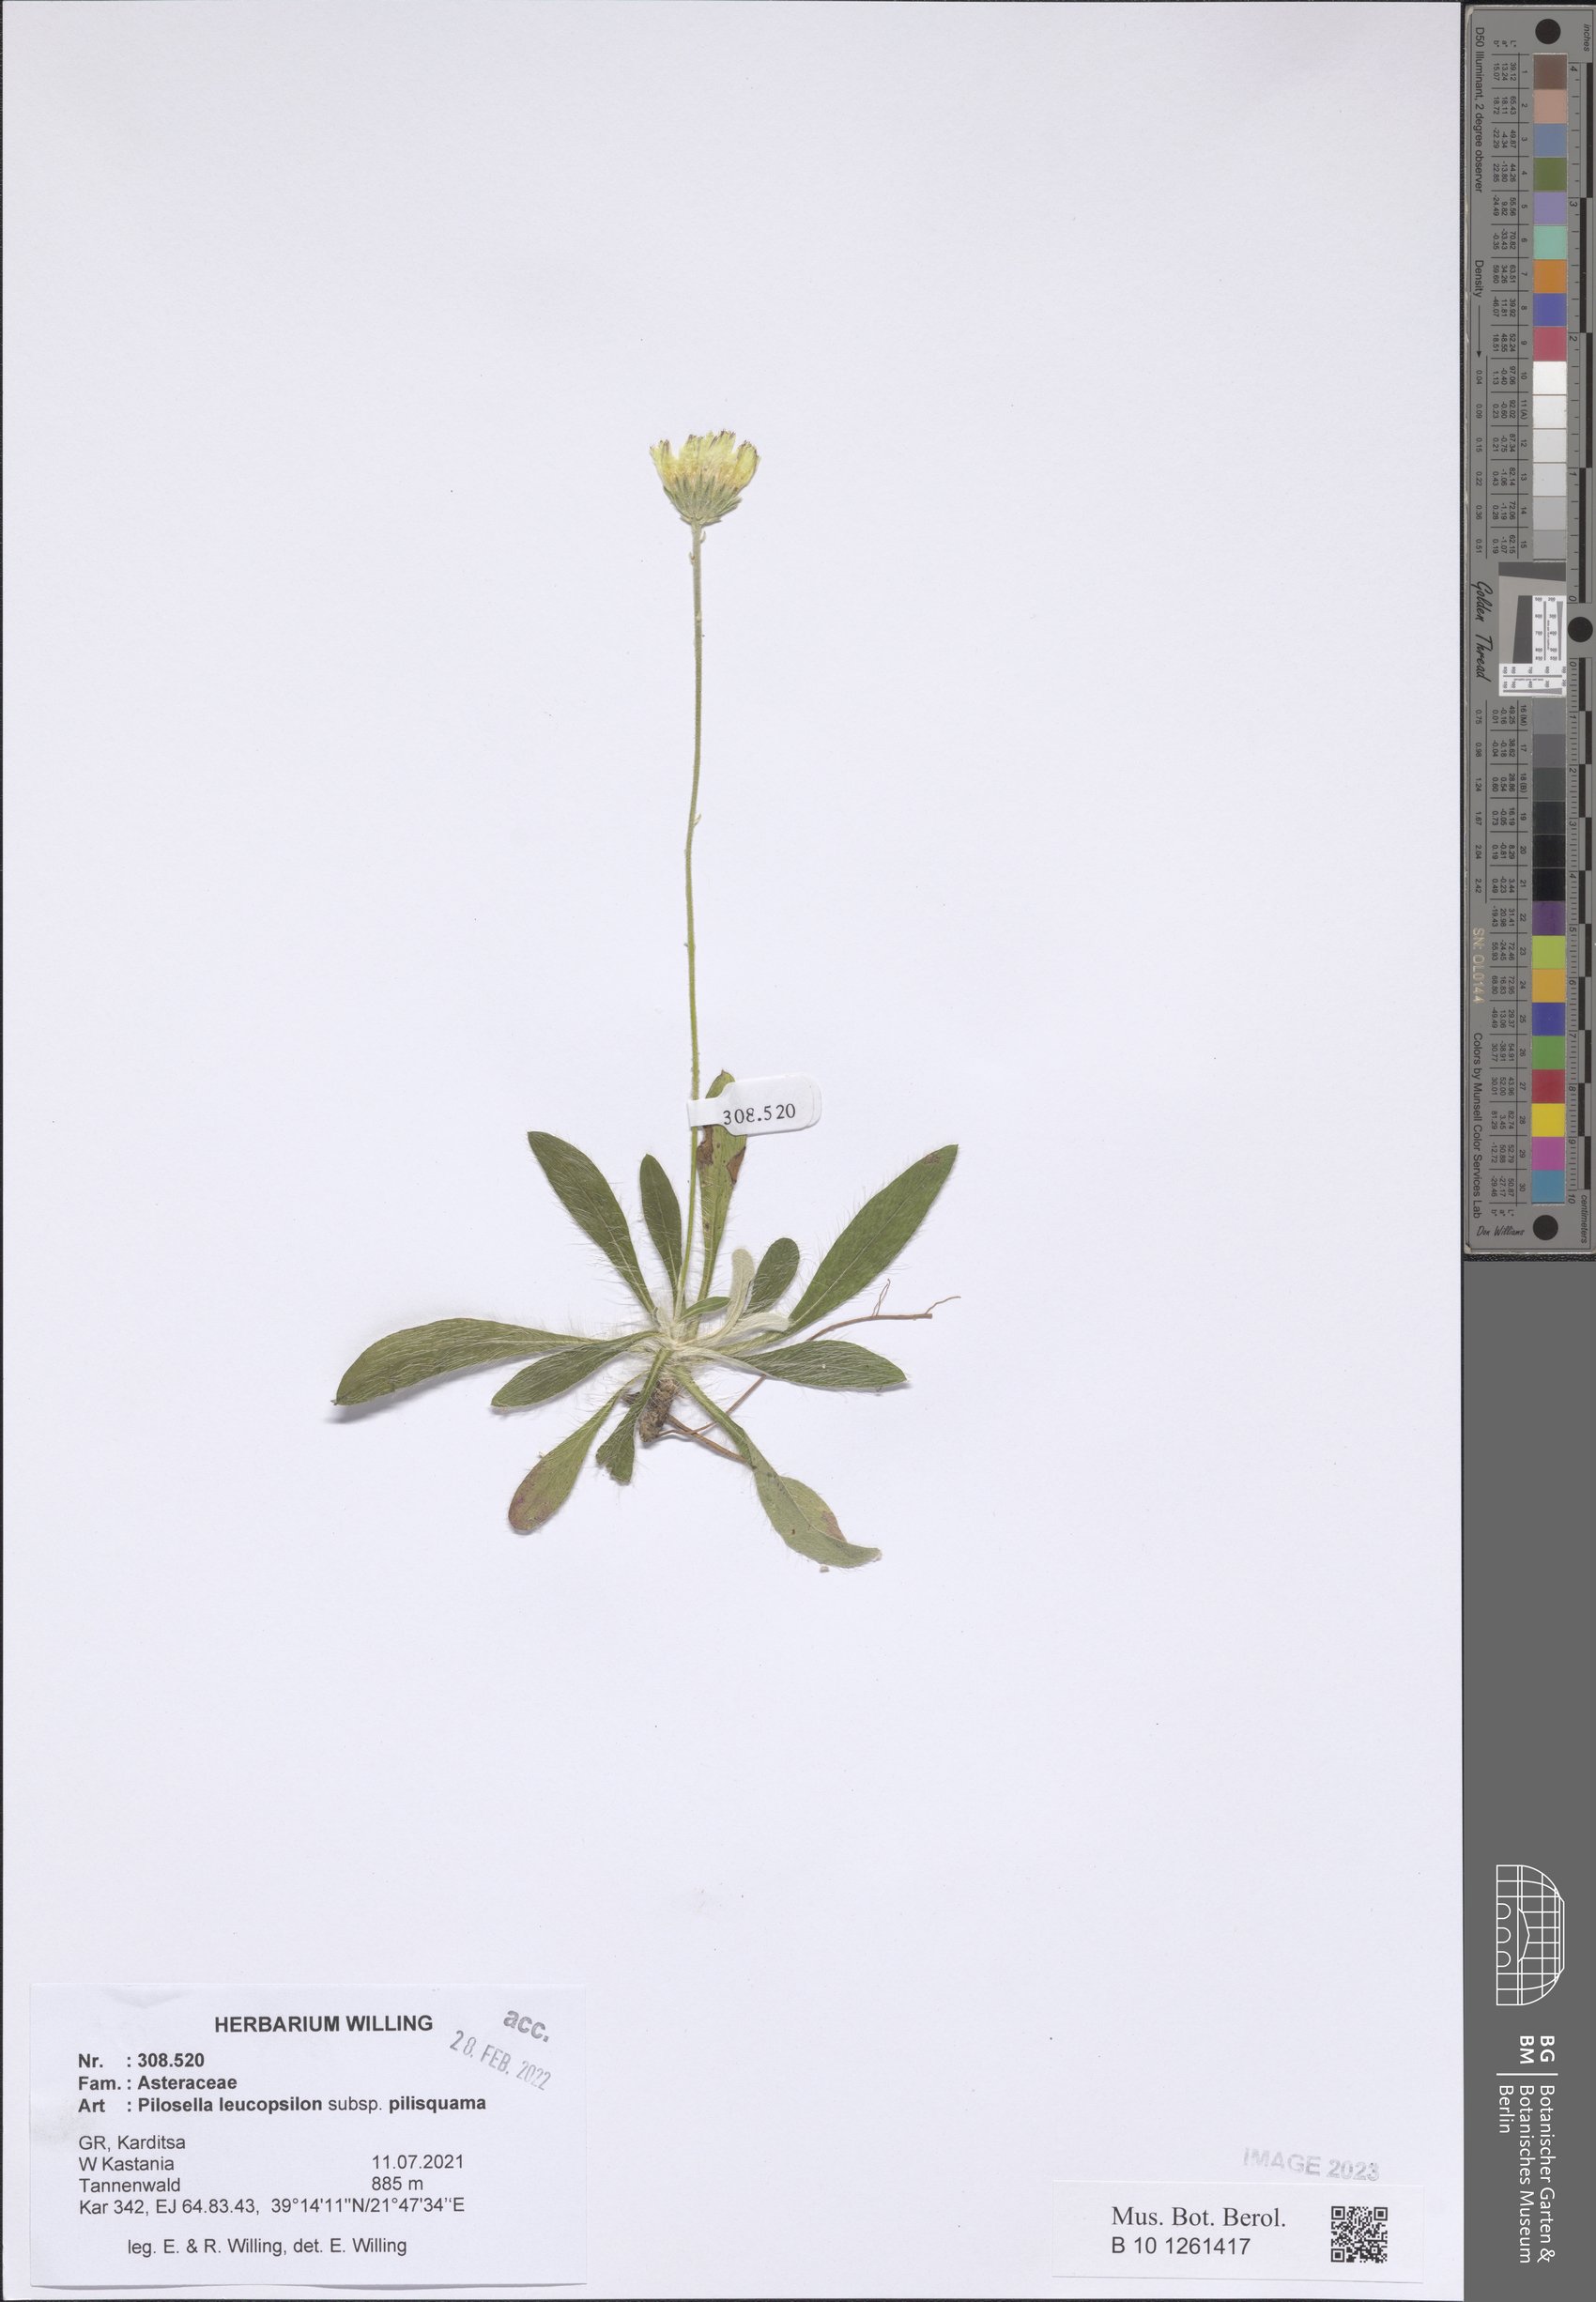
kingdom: Plantae
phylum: Tracheophyta
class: Magnoliopsida
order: Asterales
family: Asteraceae
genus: Pilosella
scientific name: Pilosella leucopsilon
